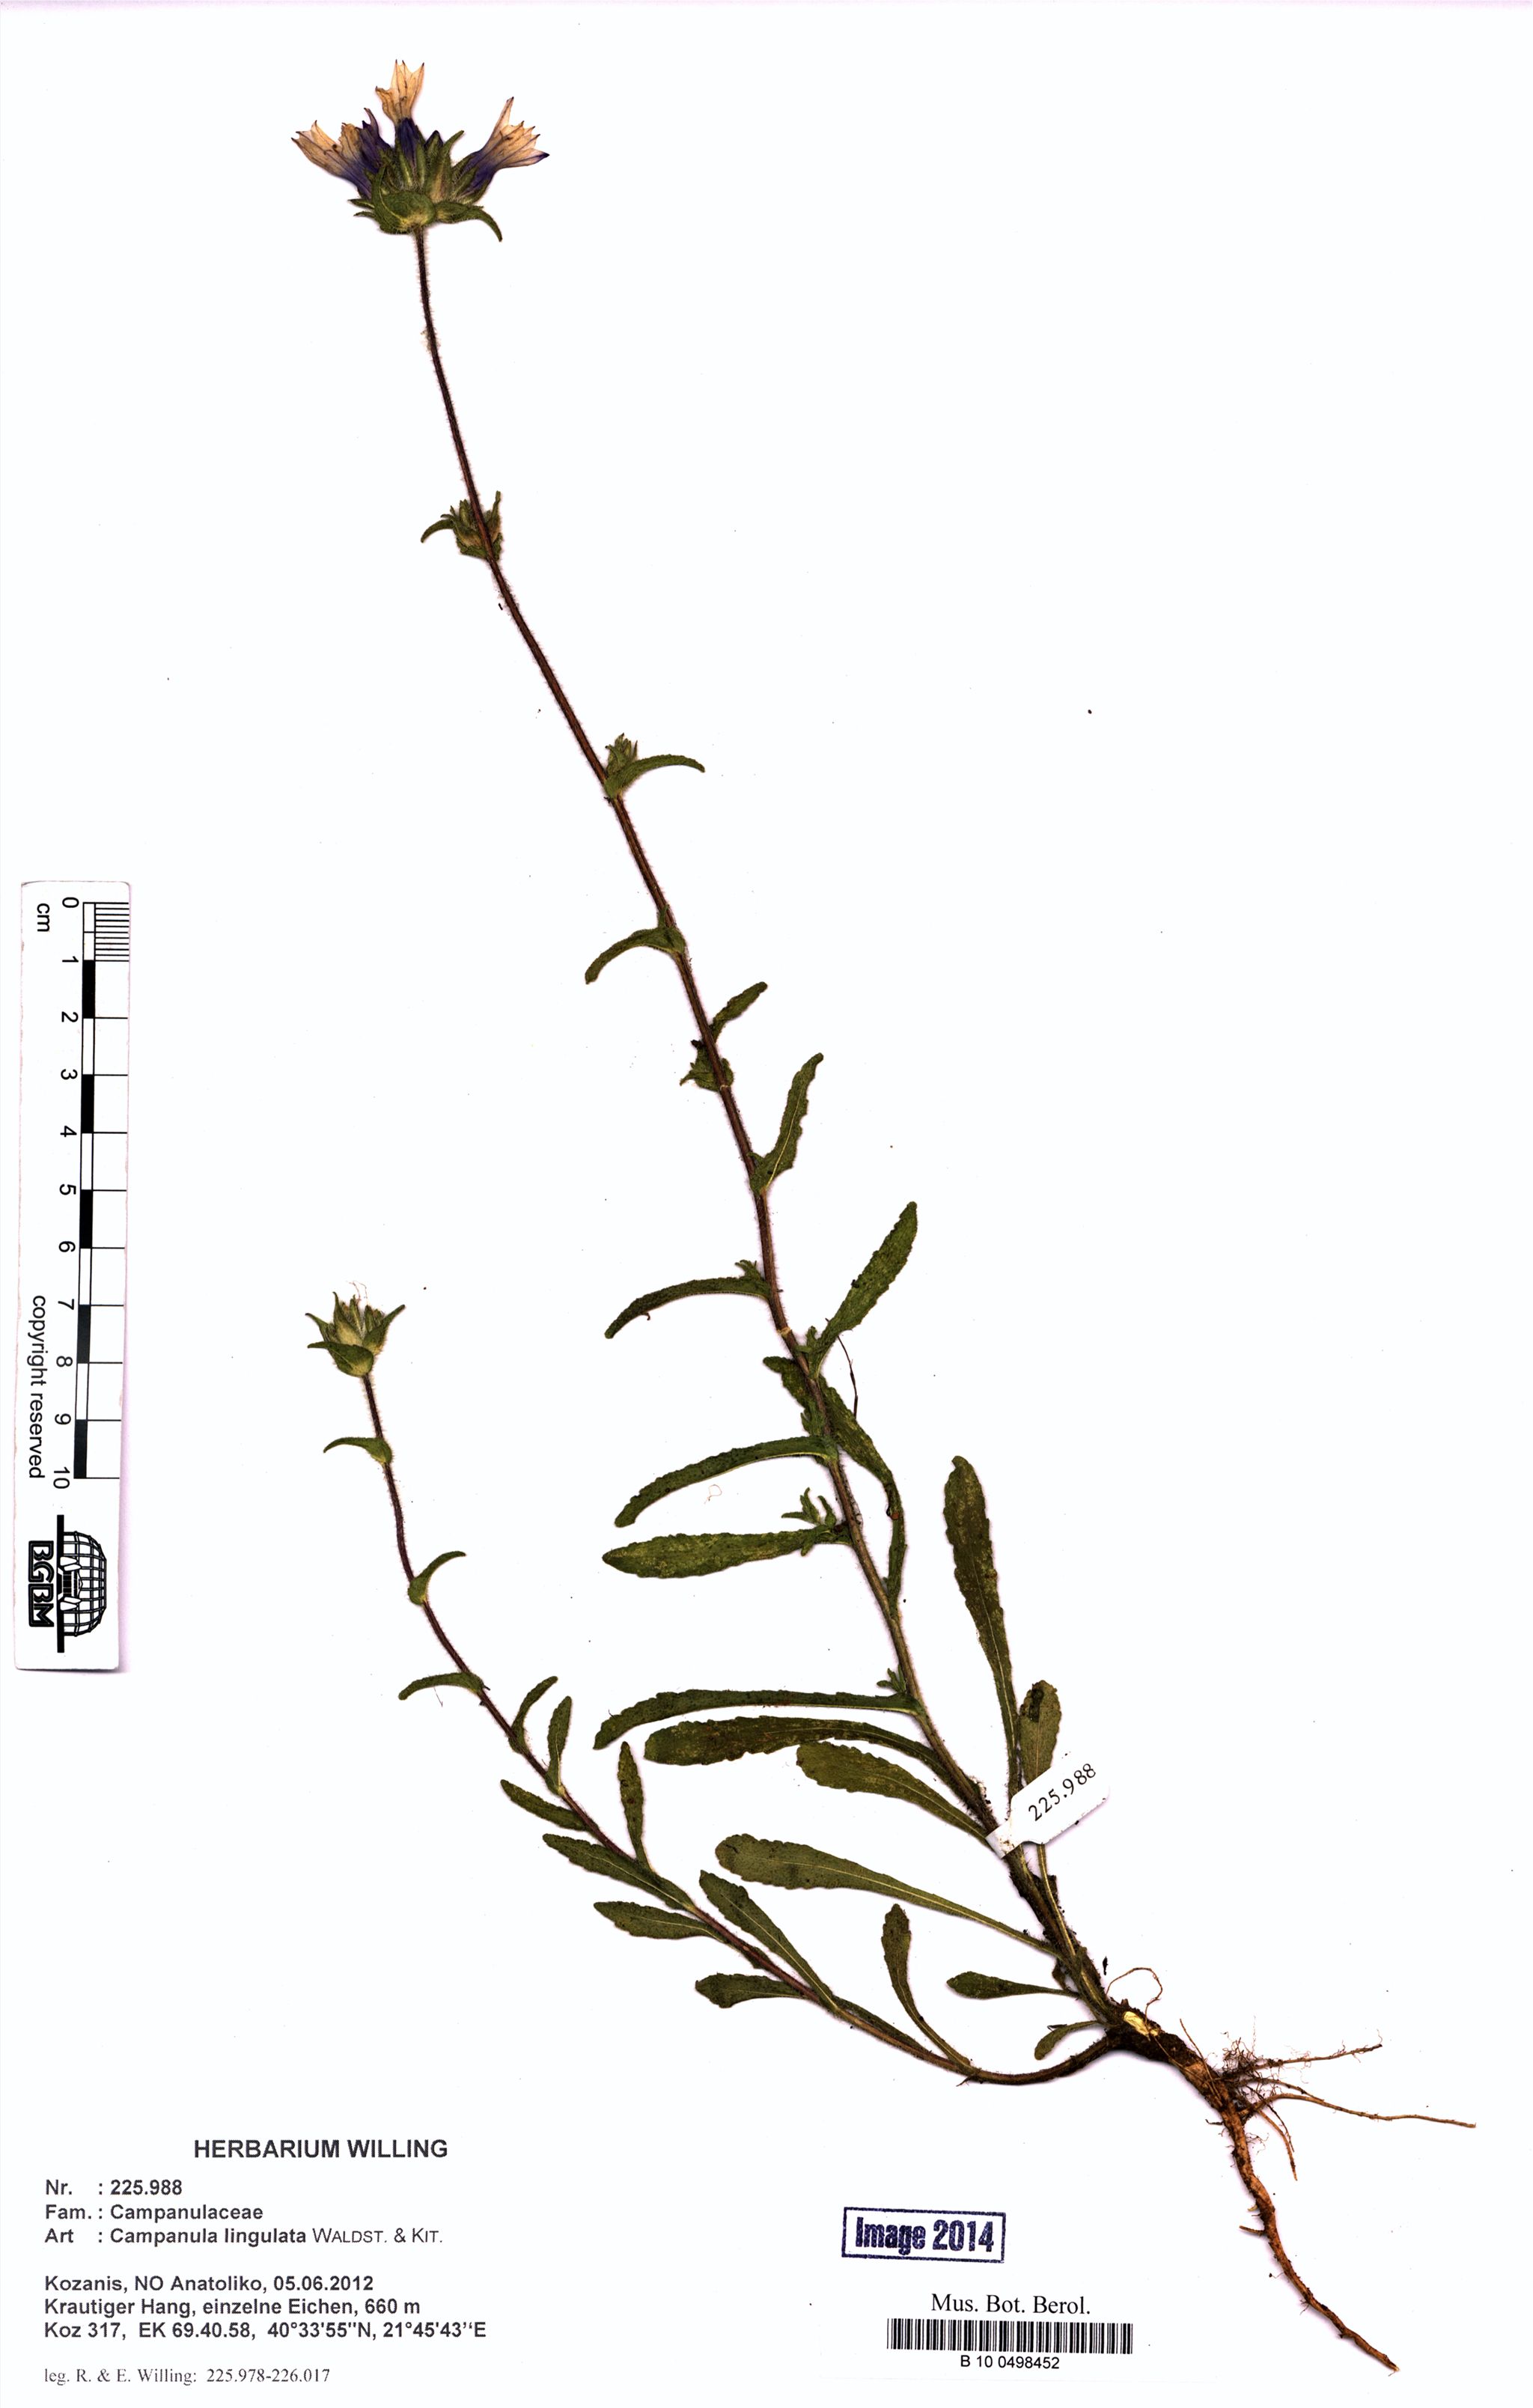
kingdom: Plantae
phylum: Tracheophyta
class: Magnoliopsida
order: Asterales
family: Campanulaceae
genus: Campanula
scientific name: Campanula lingulata
